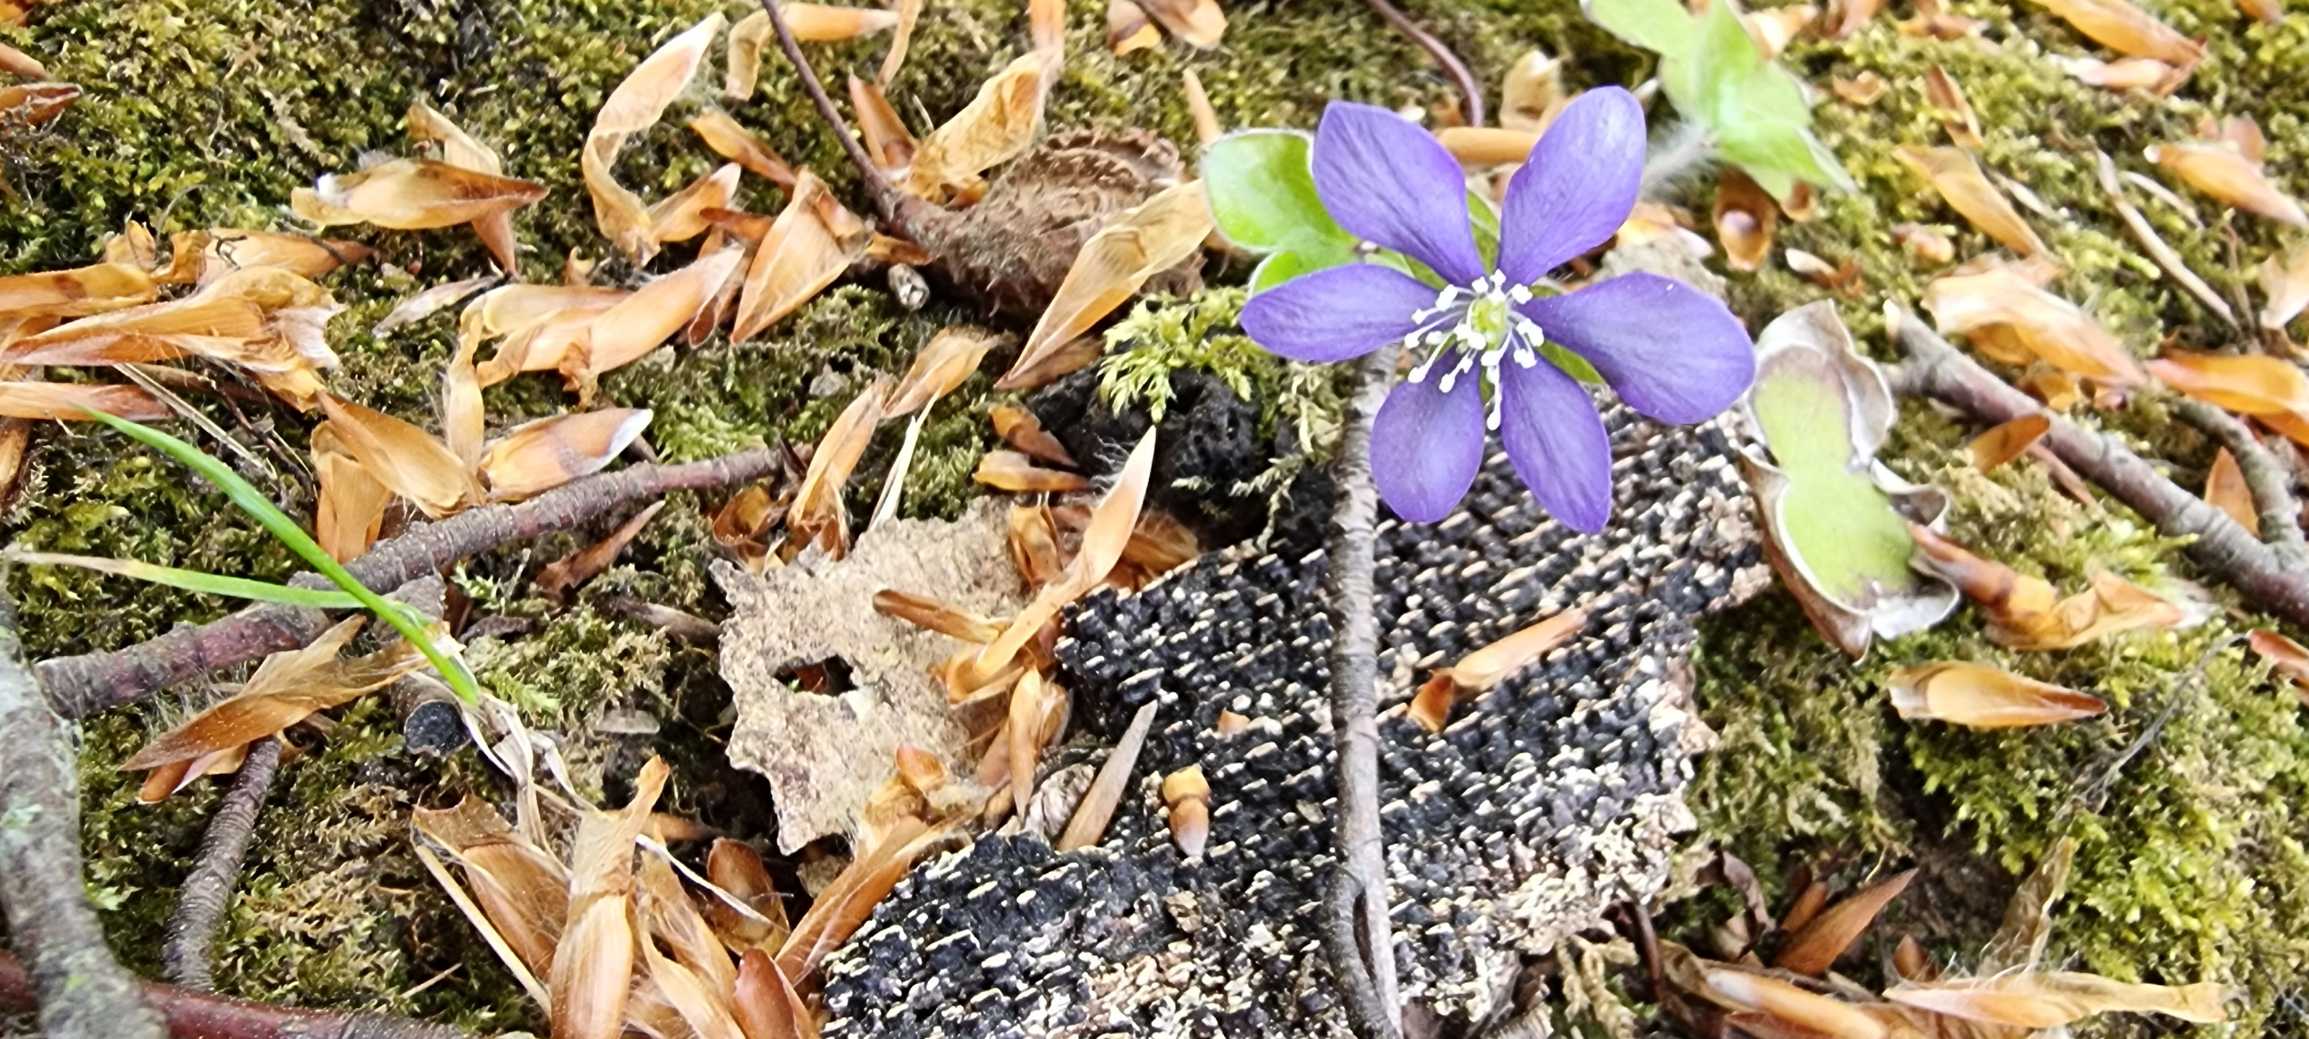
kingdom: Plantae
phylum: Tracheophyta
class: Magnoliopsida
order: Ranunculales
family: Ranunculaceae
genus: Hepatica
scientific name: Hepatica nobilis
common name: Blå anemone
